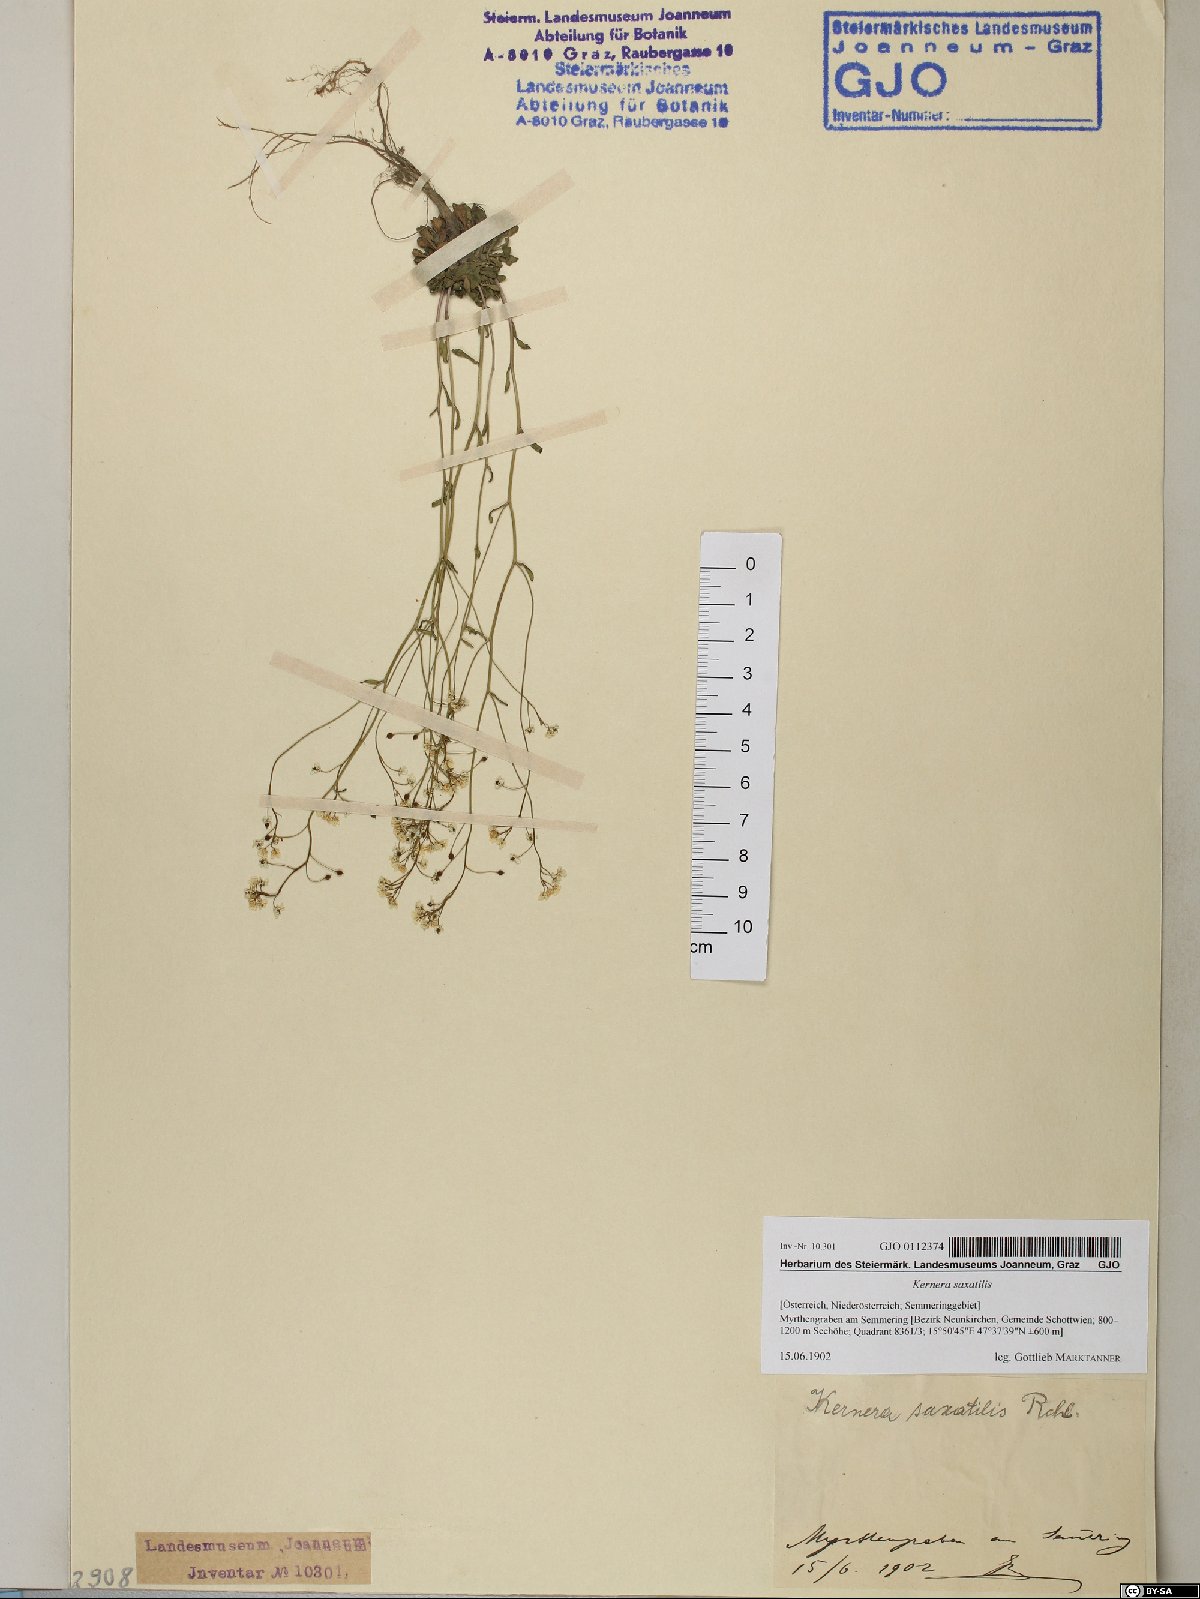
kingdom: Plantae
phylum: Tracheophyta
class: Magnoliopsida
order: Brassicales
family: Brassicaceae
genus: Kernera
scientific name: Kernera saxatilis
